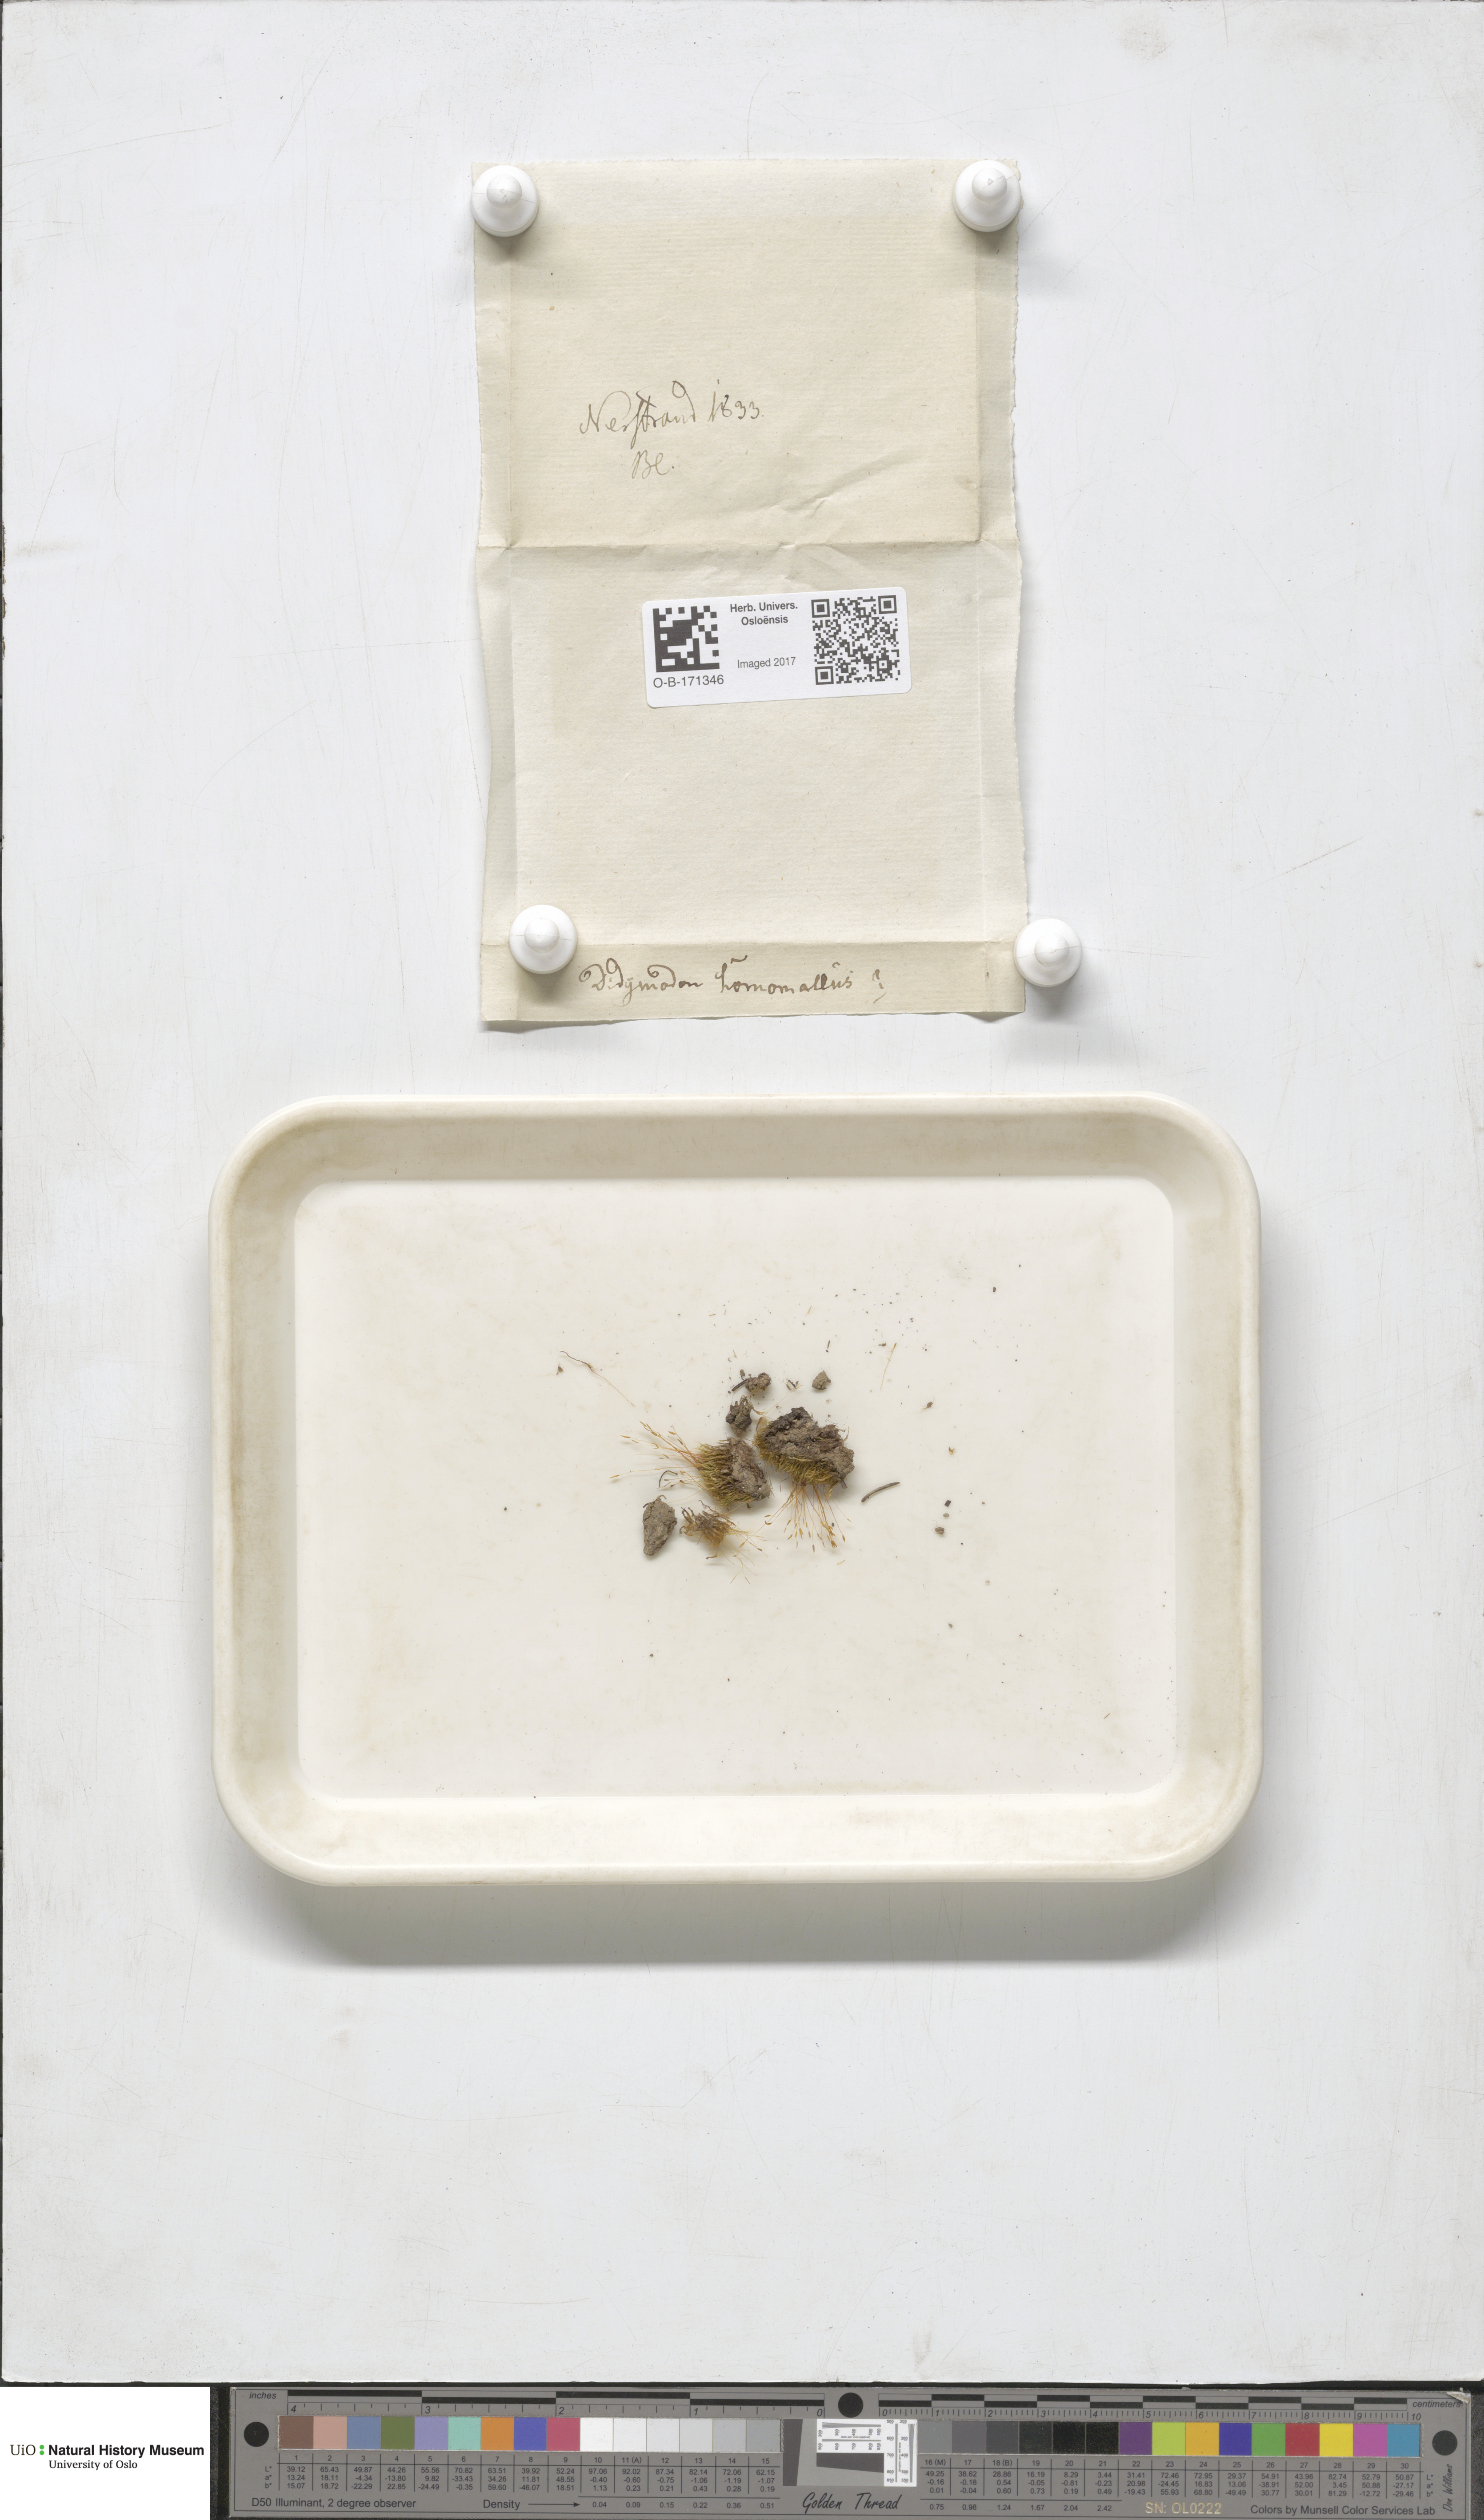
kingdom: Plantae
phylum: Bryophyta
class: Bryopsida
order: Dicranales
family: Ditrichaceae
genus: Ditrichum
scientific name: Ditrichum heteromallum
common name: Curve-leaved ditrichum
